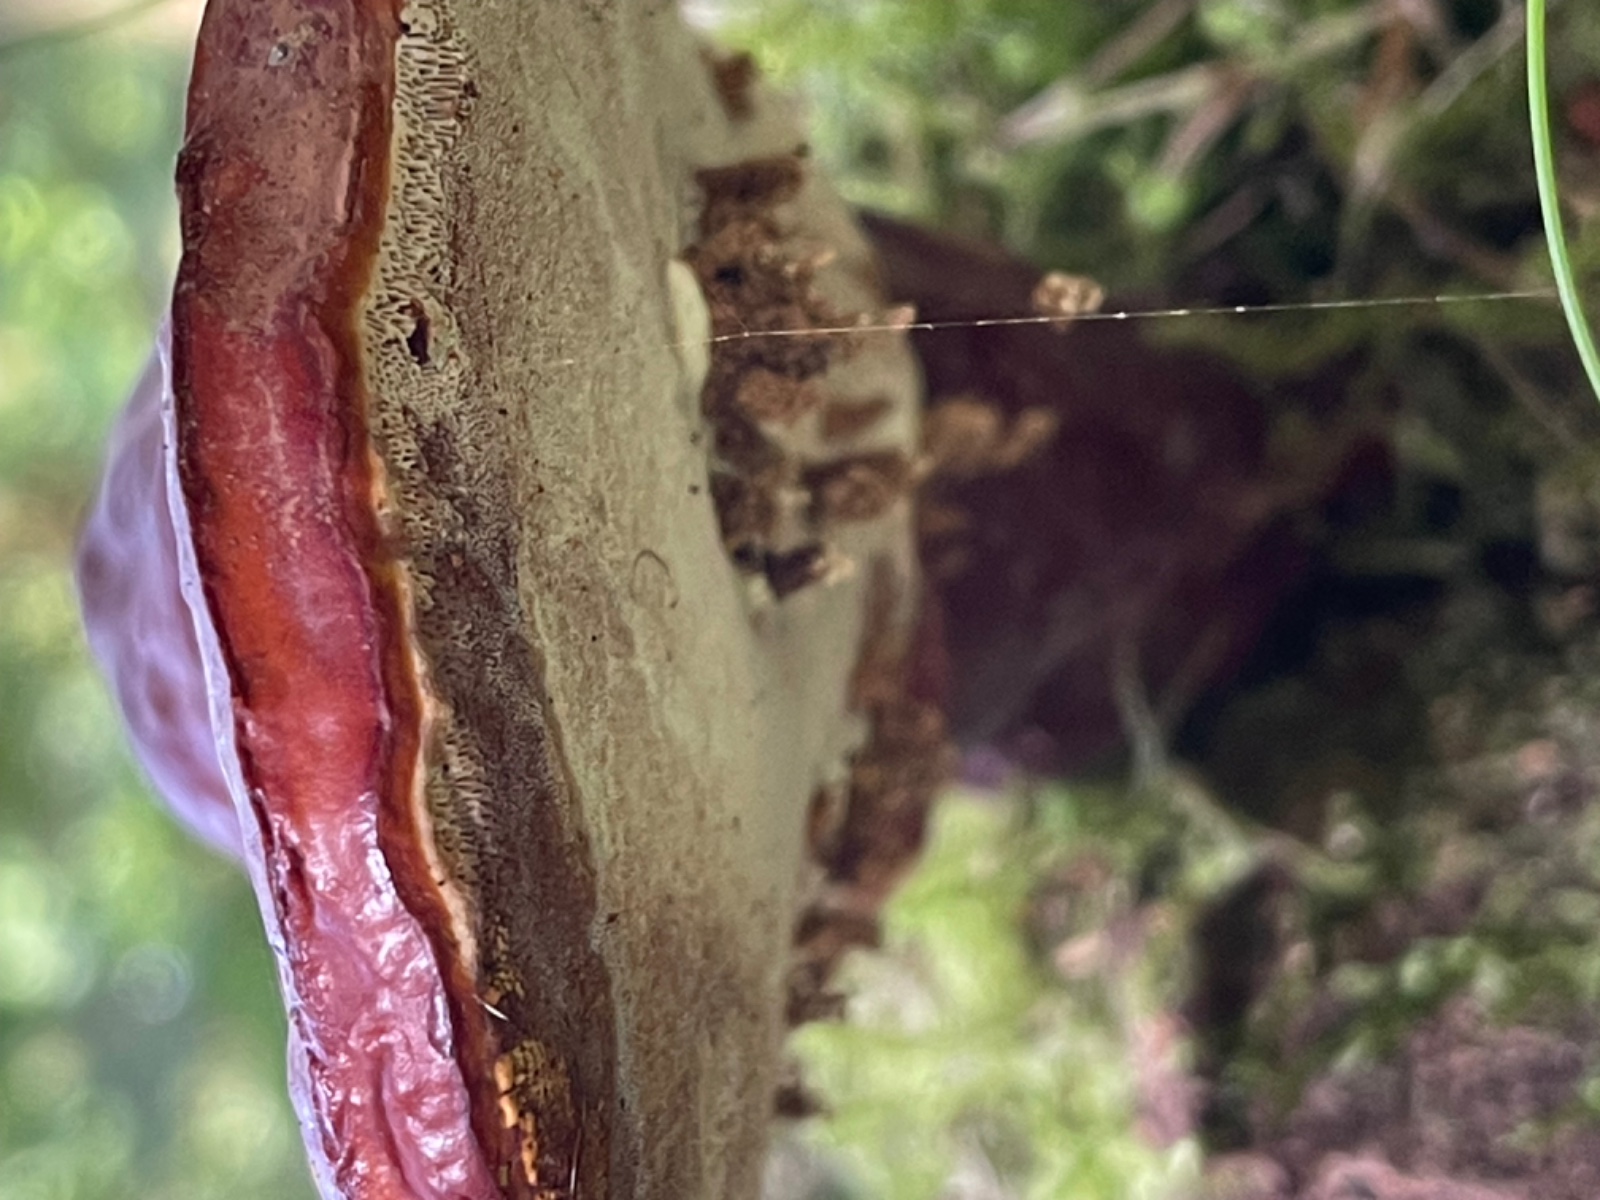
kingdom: Fungi
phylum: Basidiomycota
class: Agaricomycetes
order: Polyporales
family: Polyporaceae
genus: Ganoderma
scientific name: Ganoderma lucidum
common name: skinnende lakporesvamp
